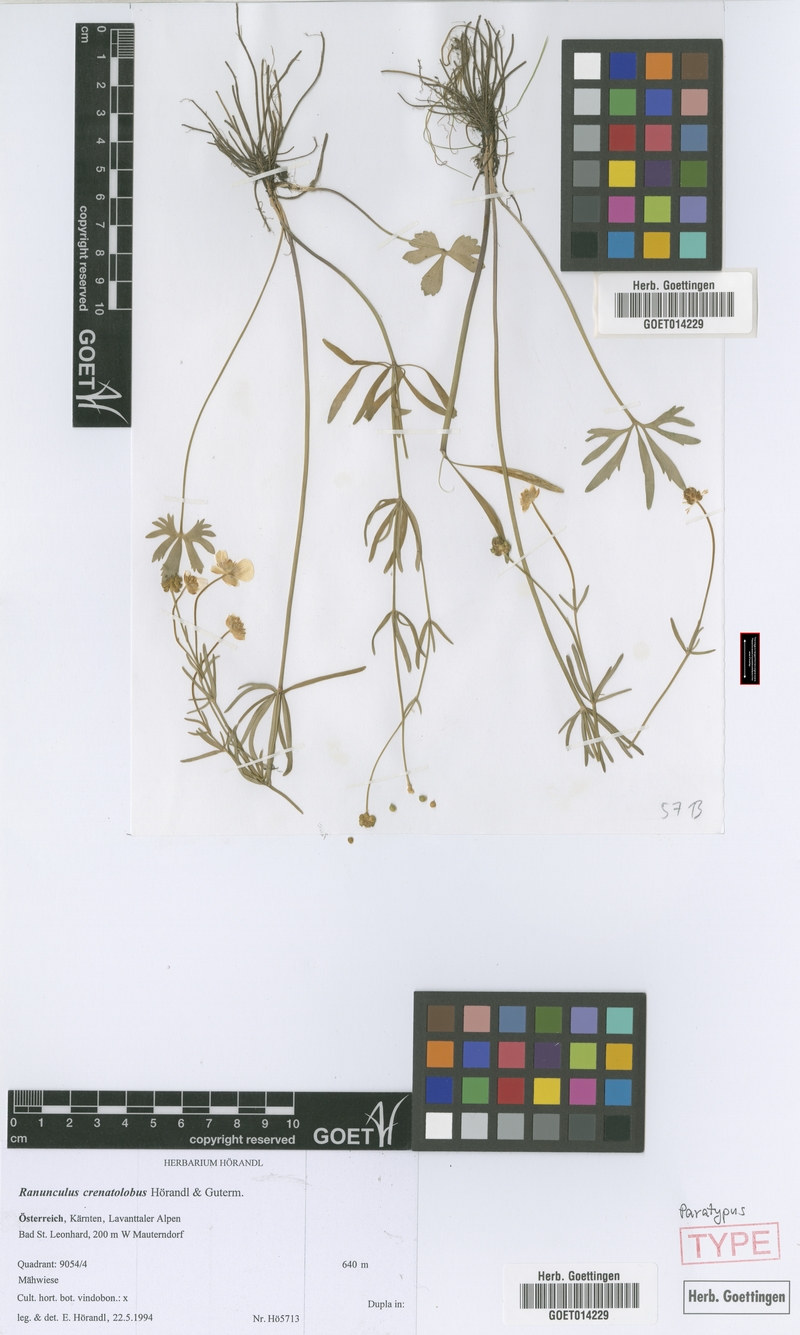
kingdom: Plantae
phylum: Tracheophyta
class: Magnoliopsida
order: Ranunculales
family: Ranunculaceae
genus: Ranunculus
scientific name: Ranunculus crenatolobus
